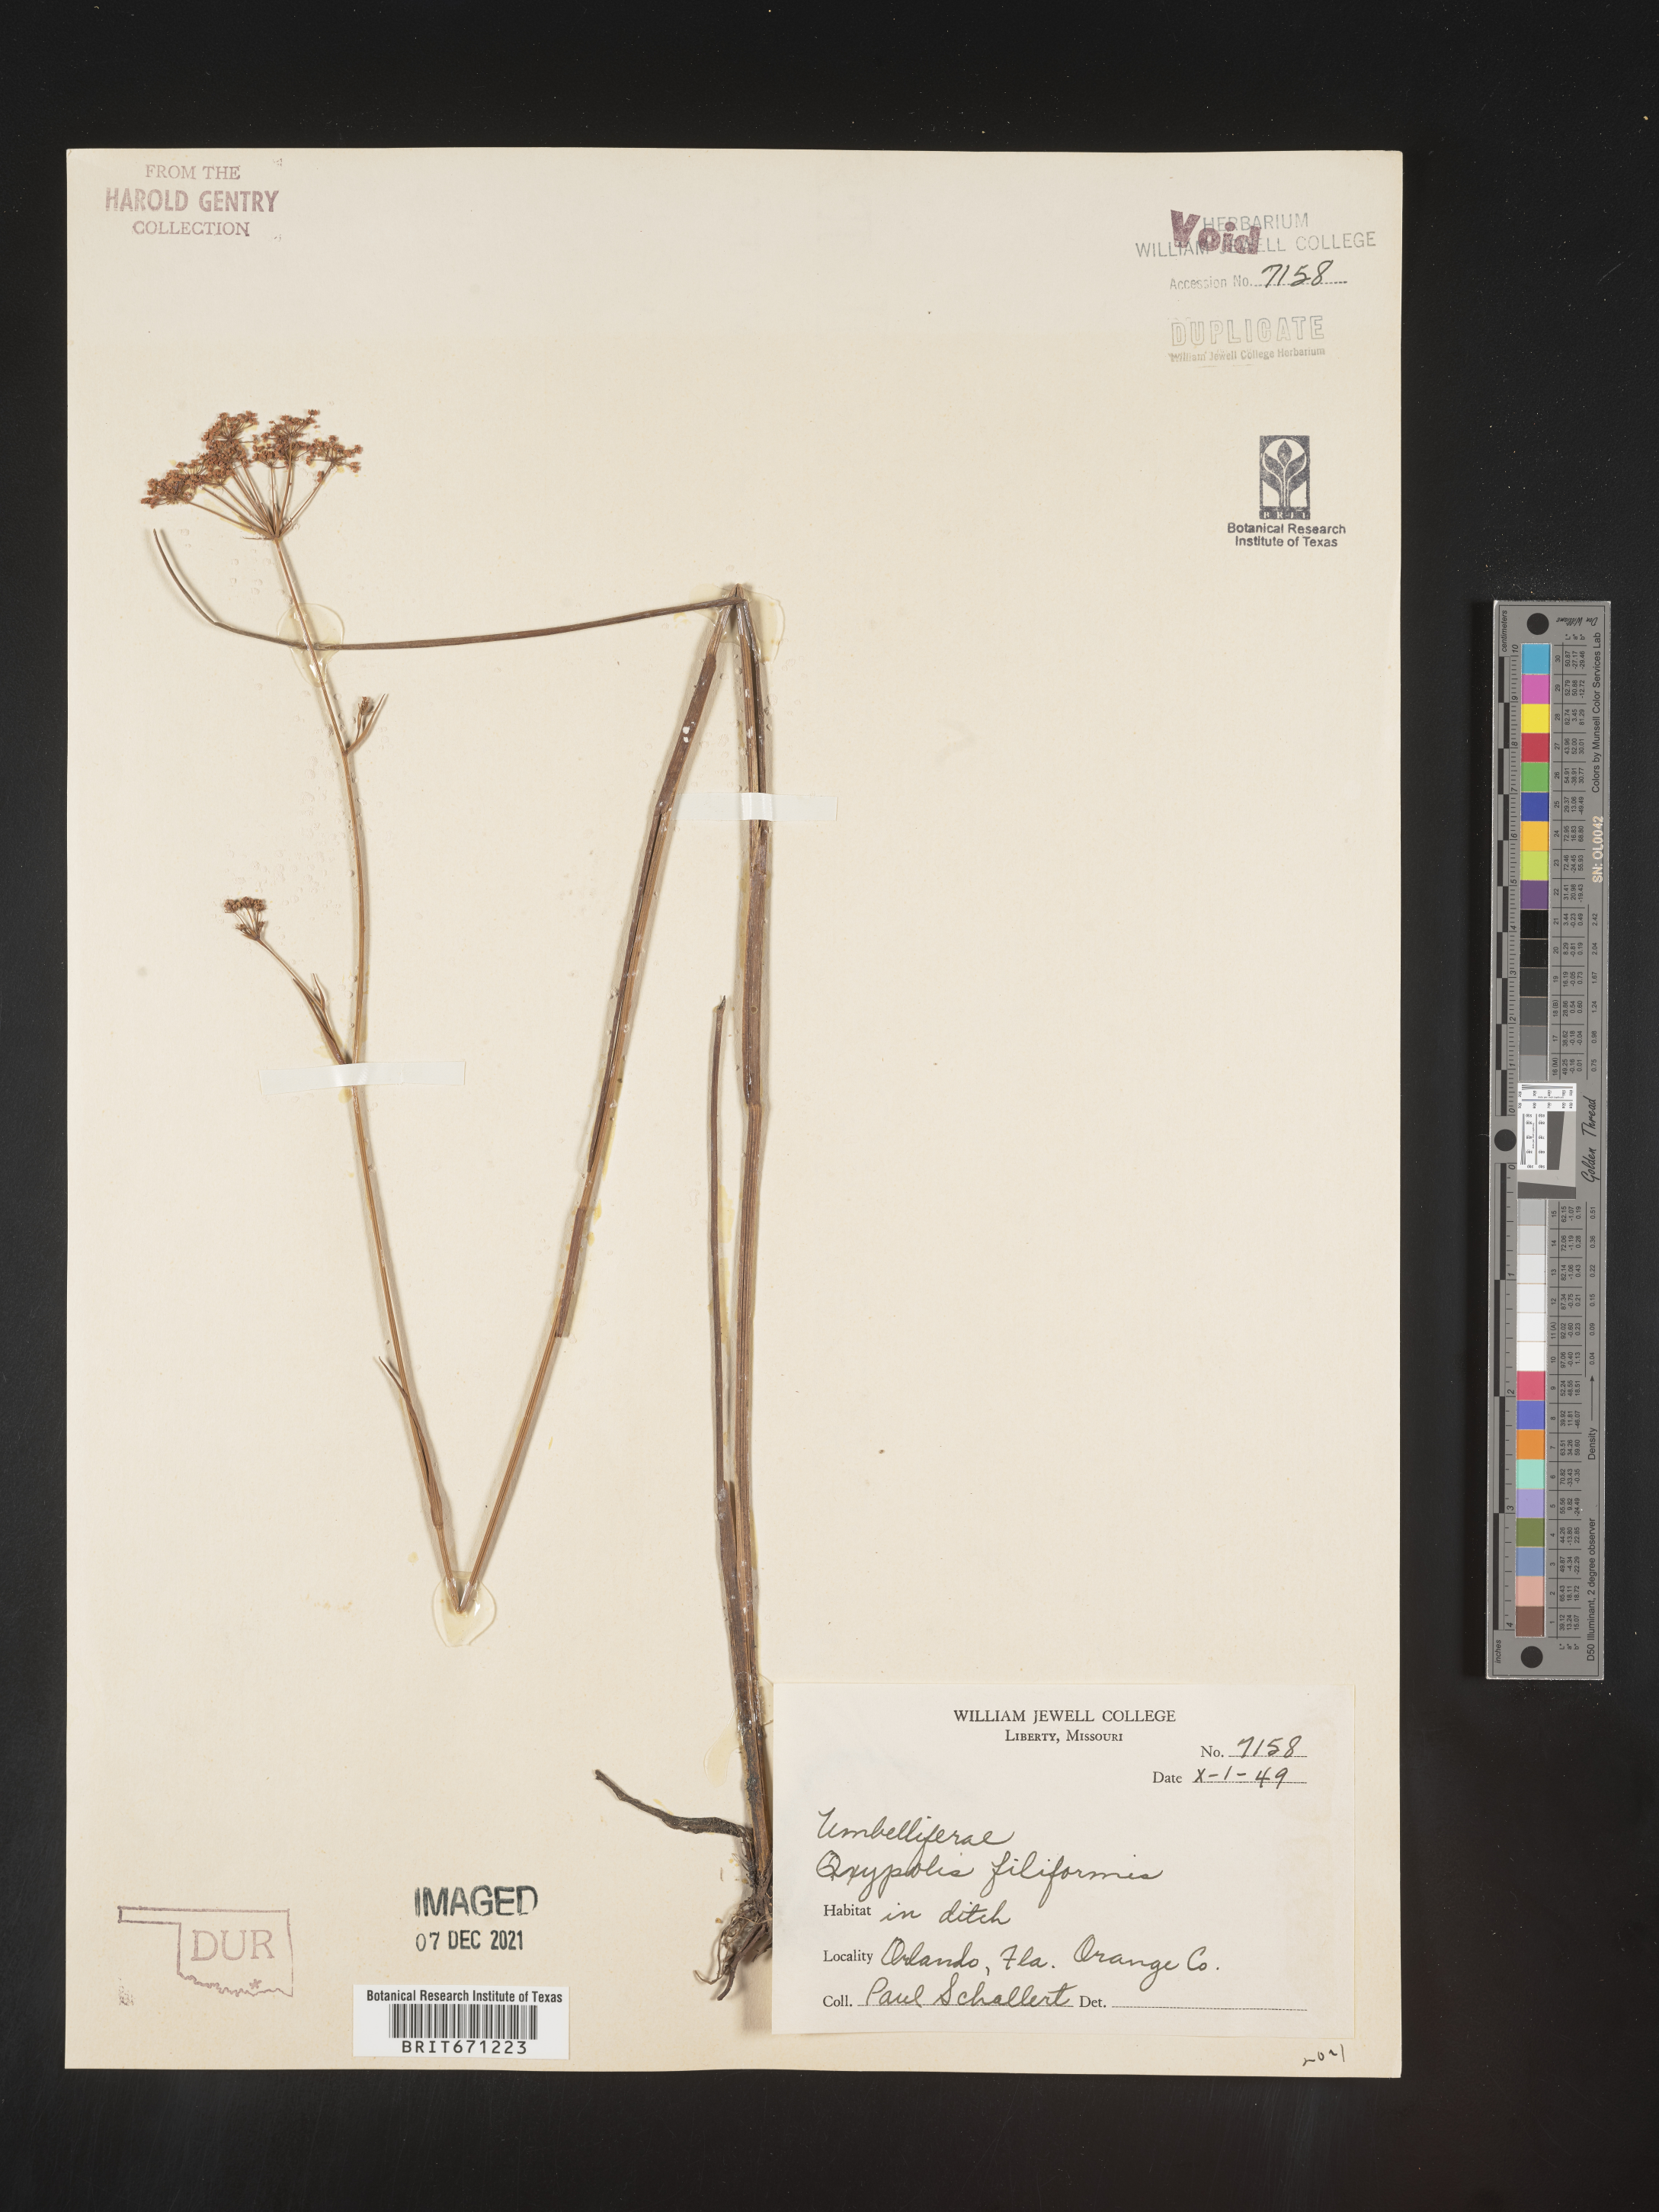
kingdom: Plantae
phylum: Tracheophyta
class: Magnoliopsida
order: Apiales
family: Apiaceae
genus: Tiedemannia
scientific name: Tiedemannia filiformis
